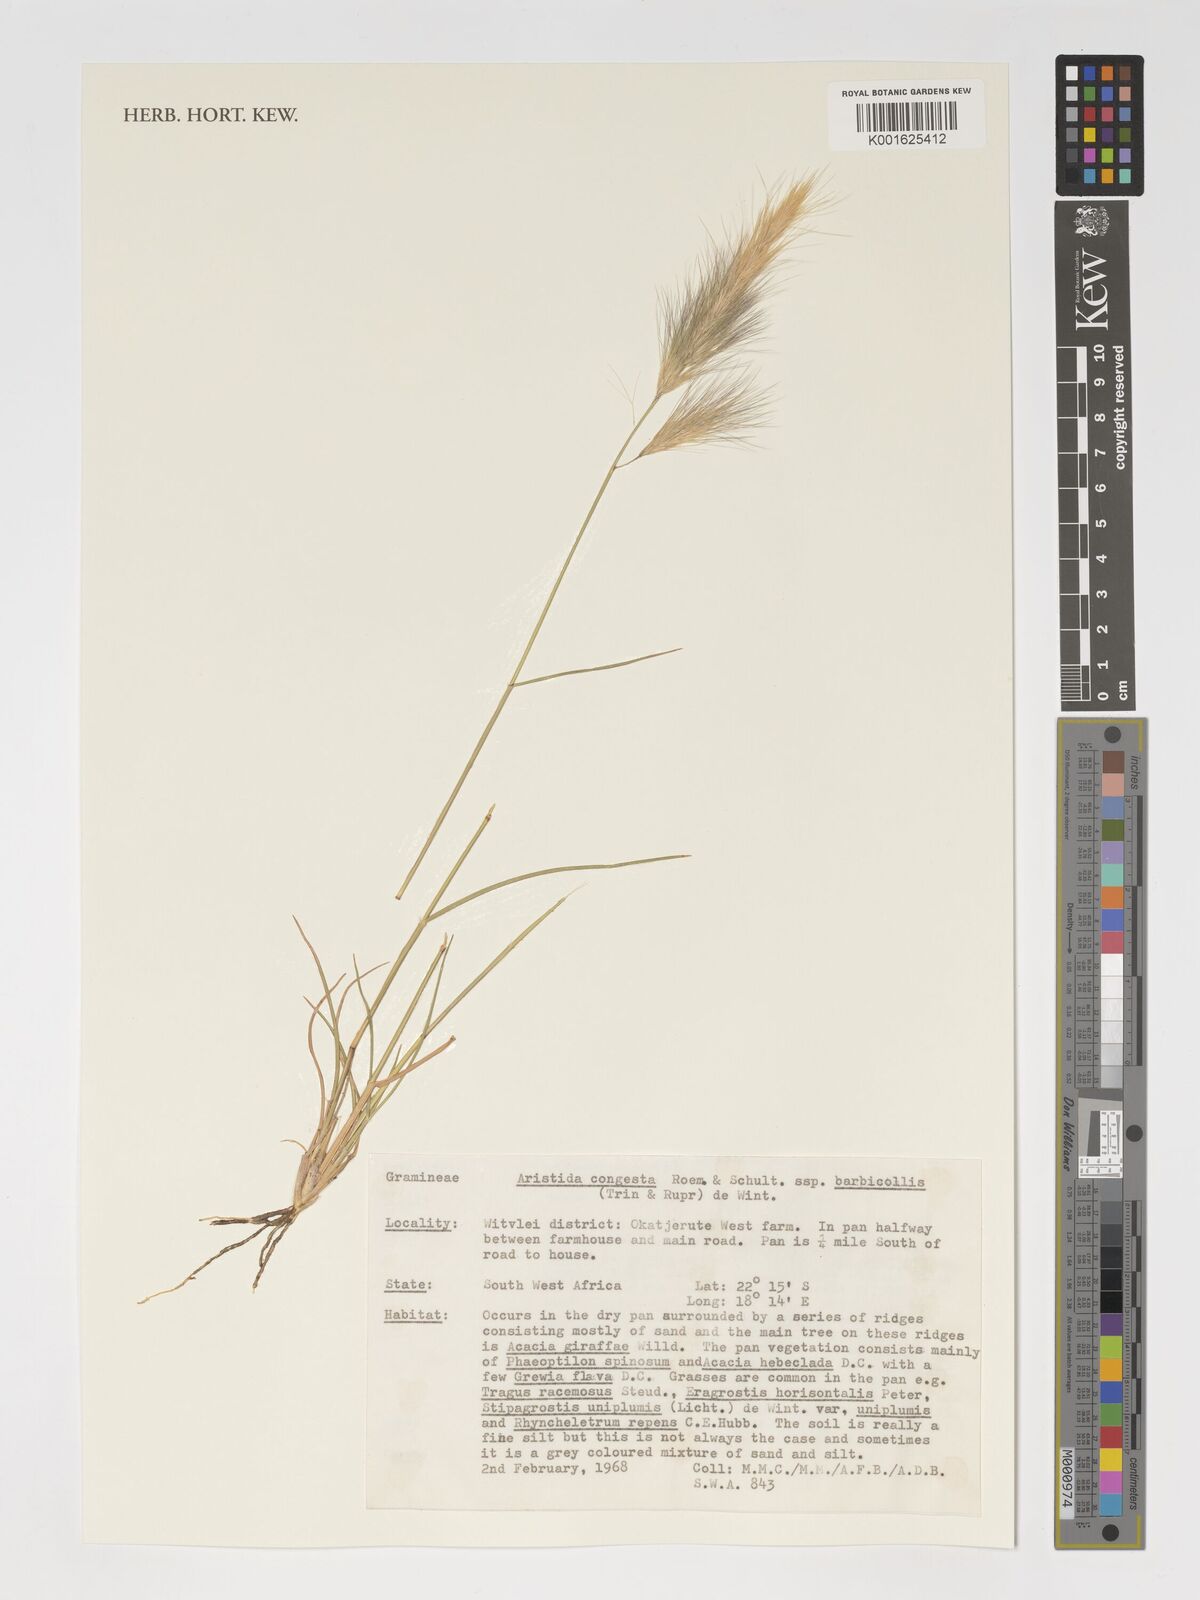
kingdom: Plantae
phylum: Tracheophyta
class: Liliopsida
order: Poales
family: Poaceae
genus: Aristida
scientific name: Aristida congesta
